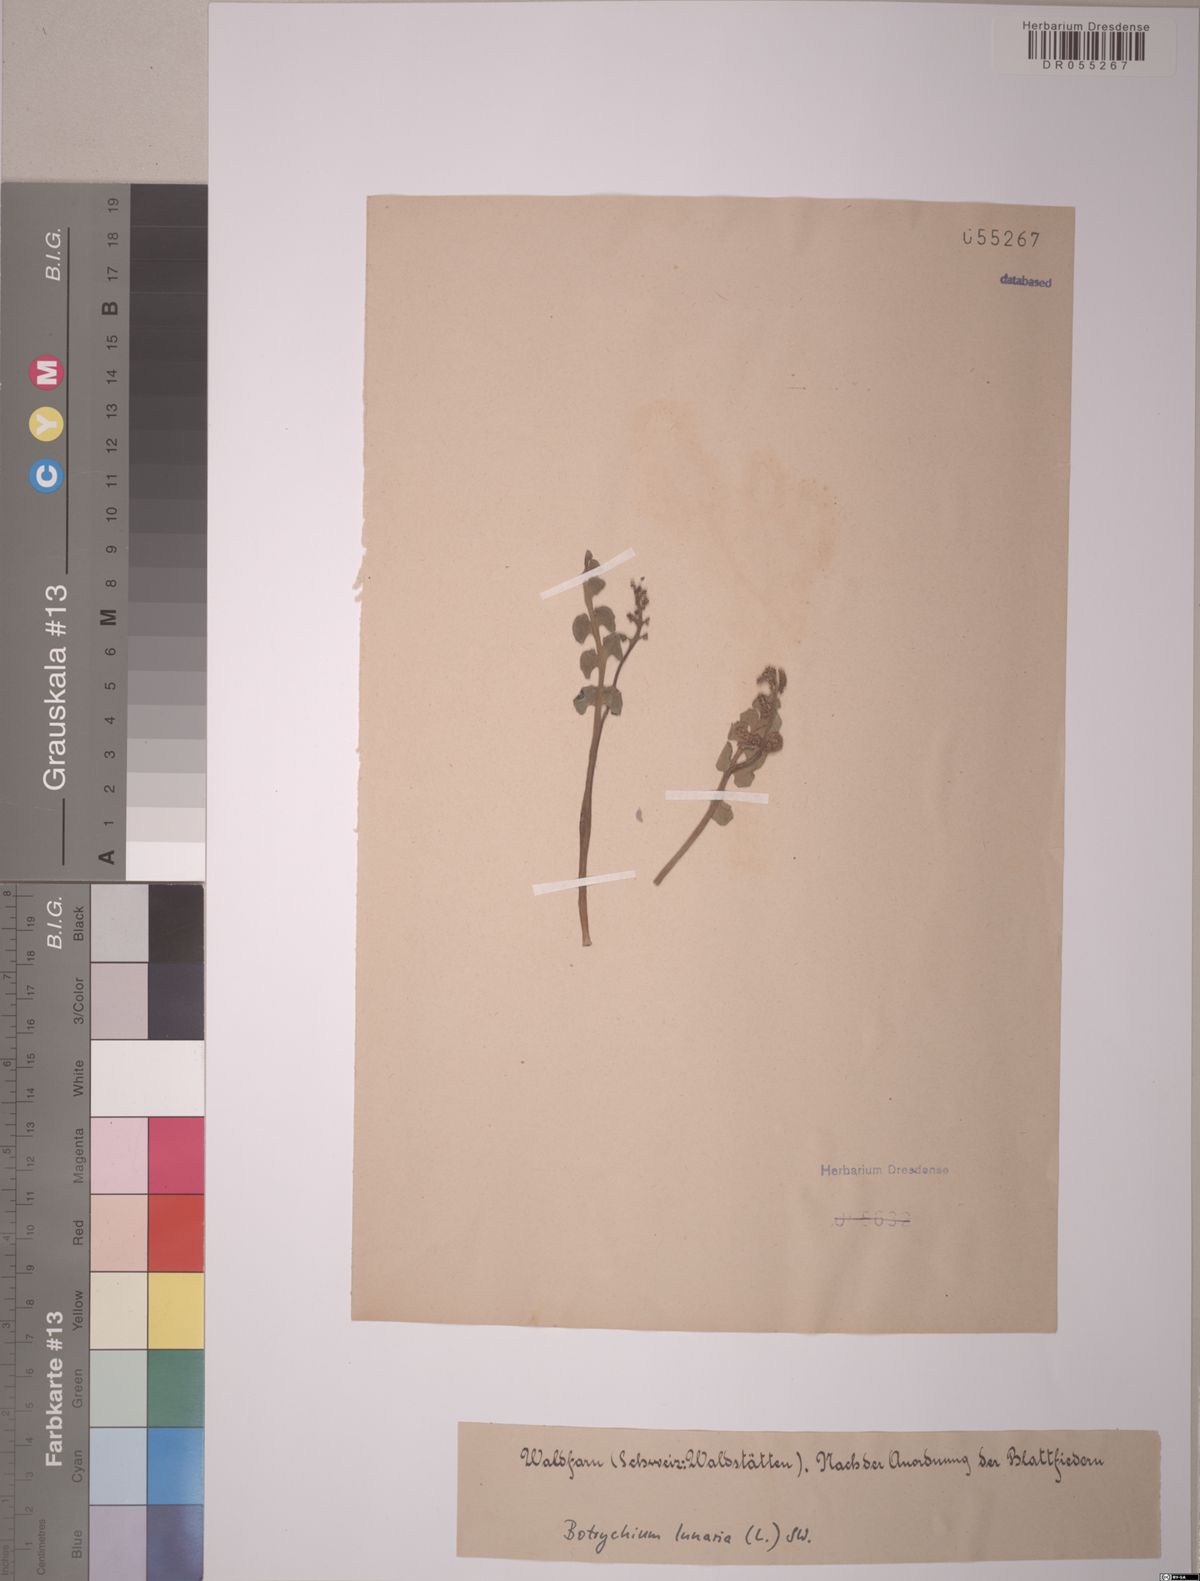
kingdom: Plantae
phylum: Tracheophyta
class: Polypodiopsida
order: Ophioglossales
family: Ophioglossaceae
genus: Botrychium
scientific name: Botrychium lunaria
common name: Moonwort
